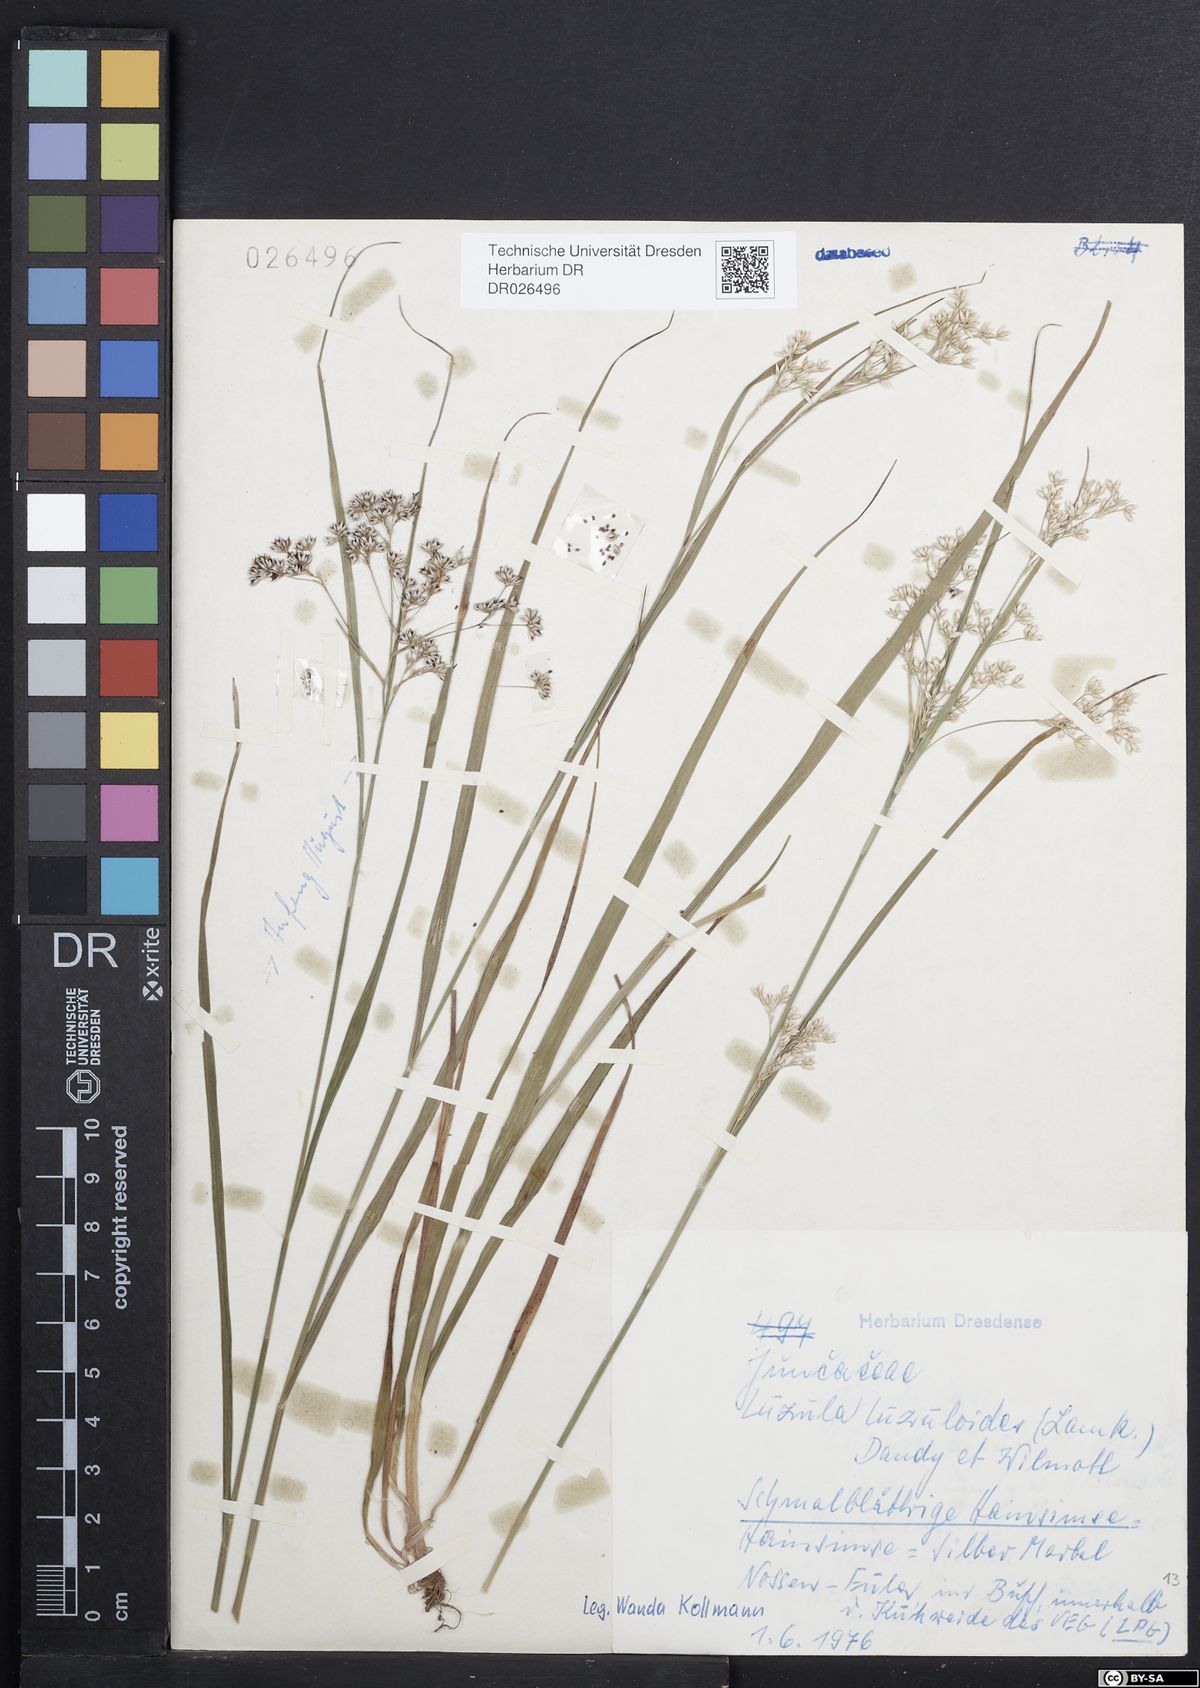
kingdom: Plantae
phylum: Tracheophyta
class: Liliopsida
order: Poales
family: Juncaceae
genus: Luzula
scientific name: Luzula luzuloides
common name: White wood-rush
